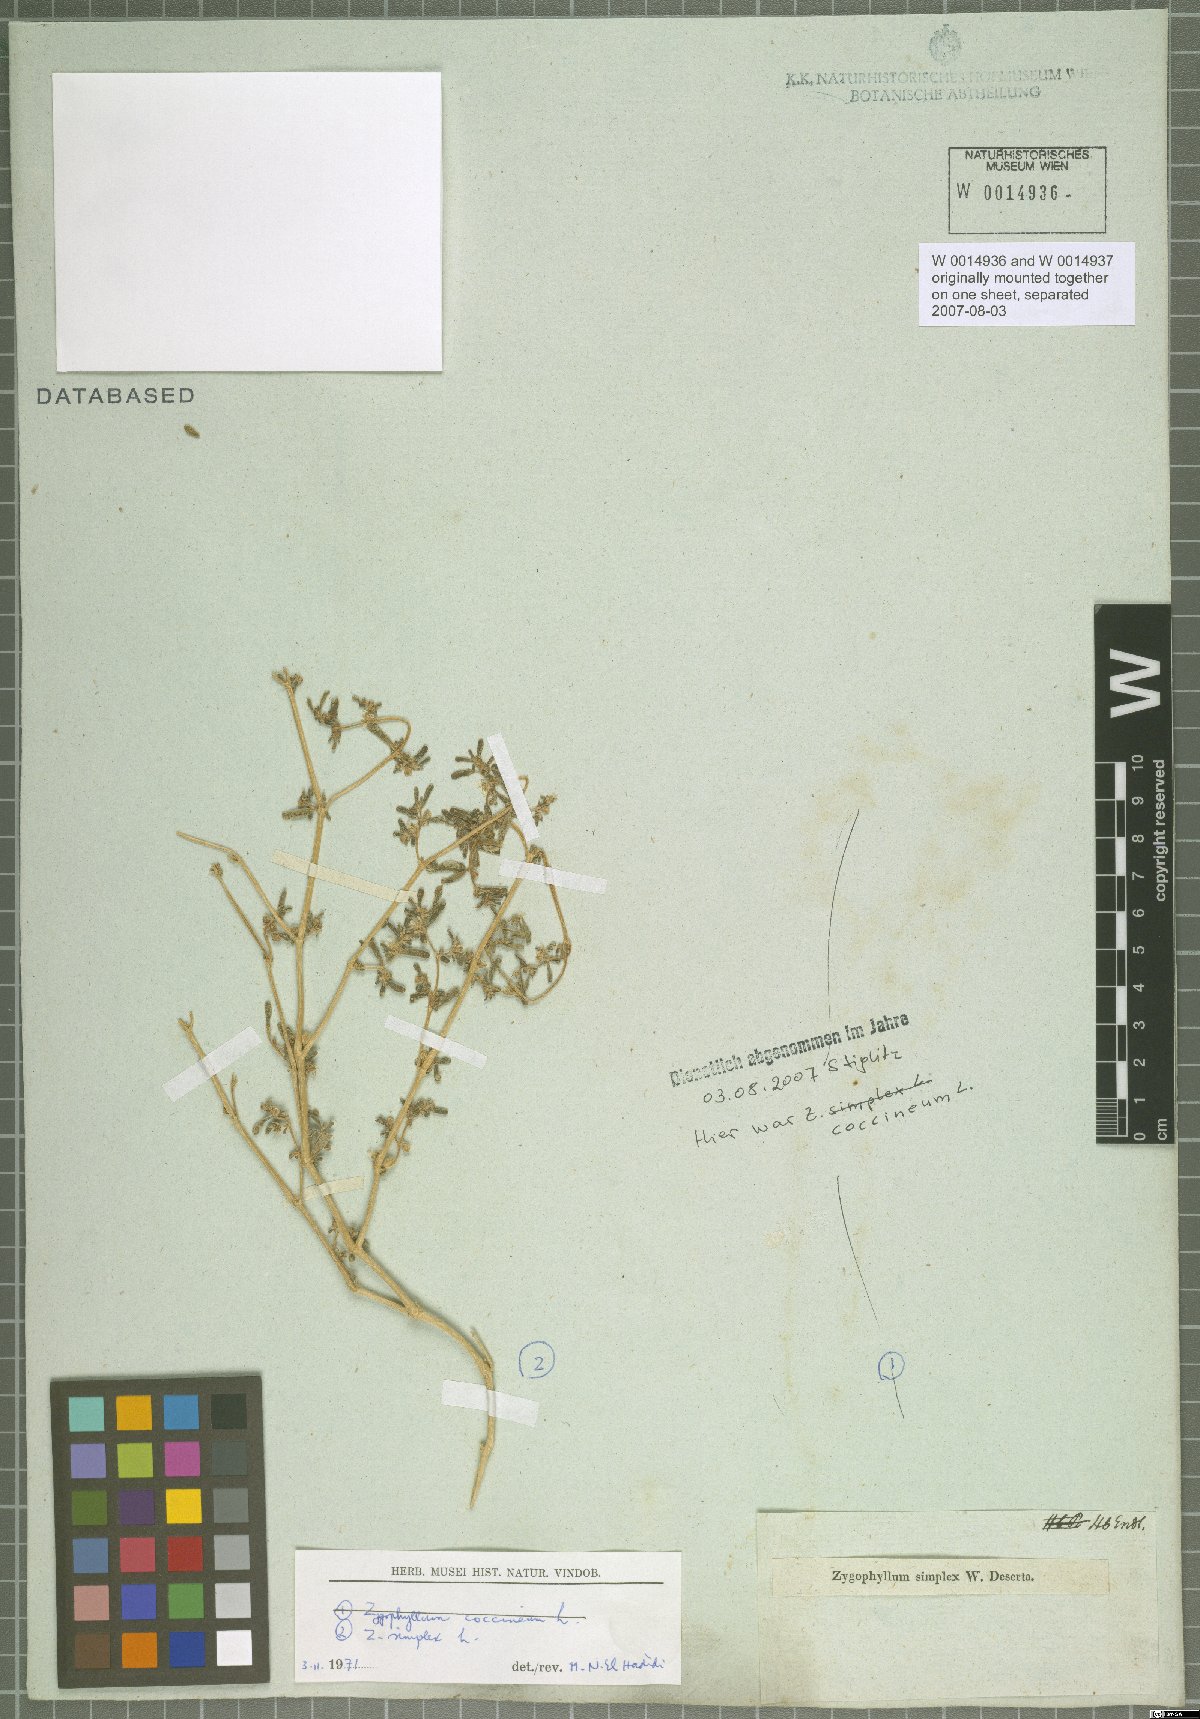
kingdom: Plantae
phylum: Tracheophyta
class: Magnoliopsida
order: Zygophyllales
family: Zygophyllaceae
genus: Tetraena
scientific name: Tetraena simplex
